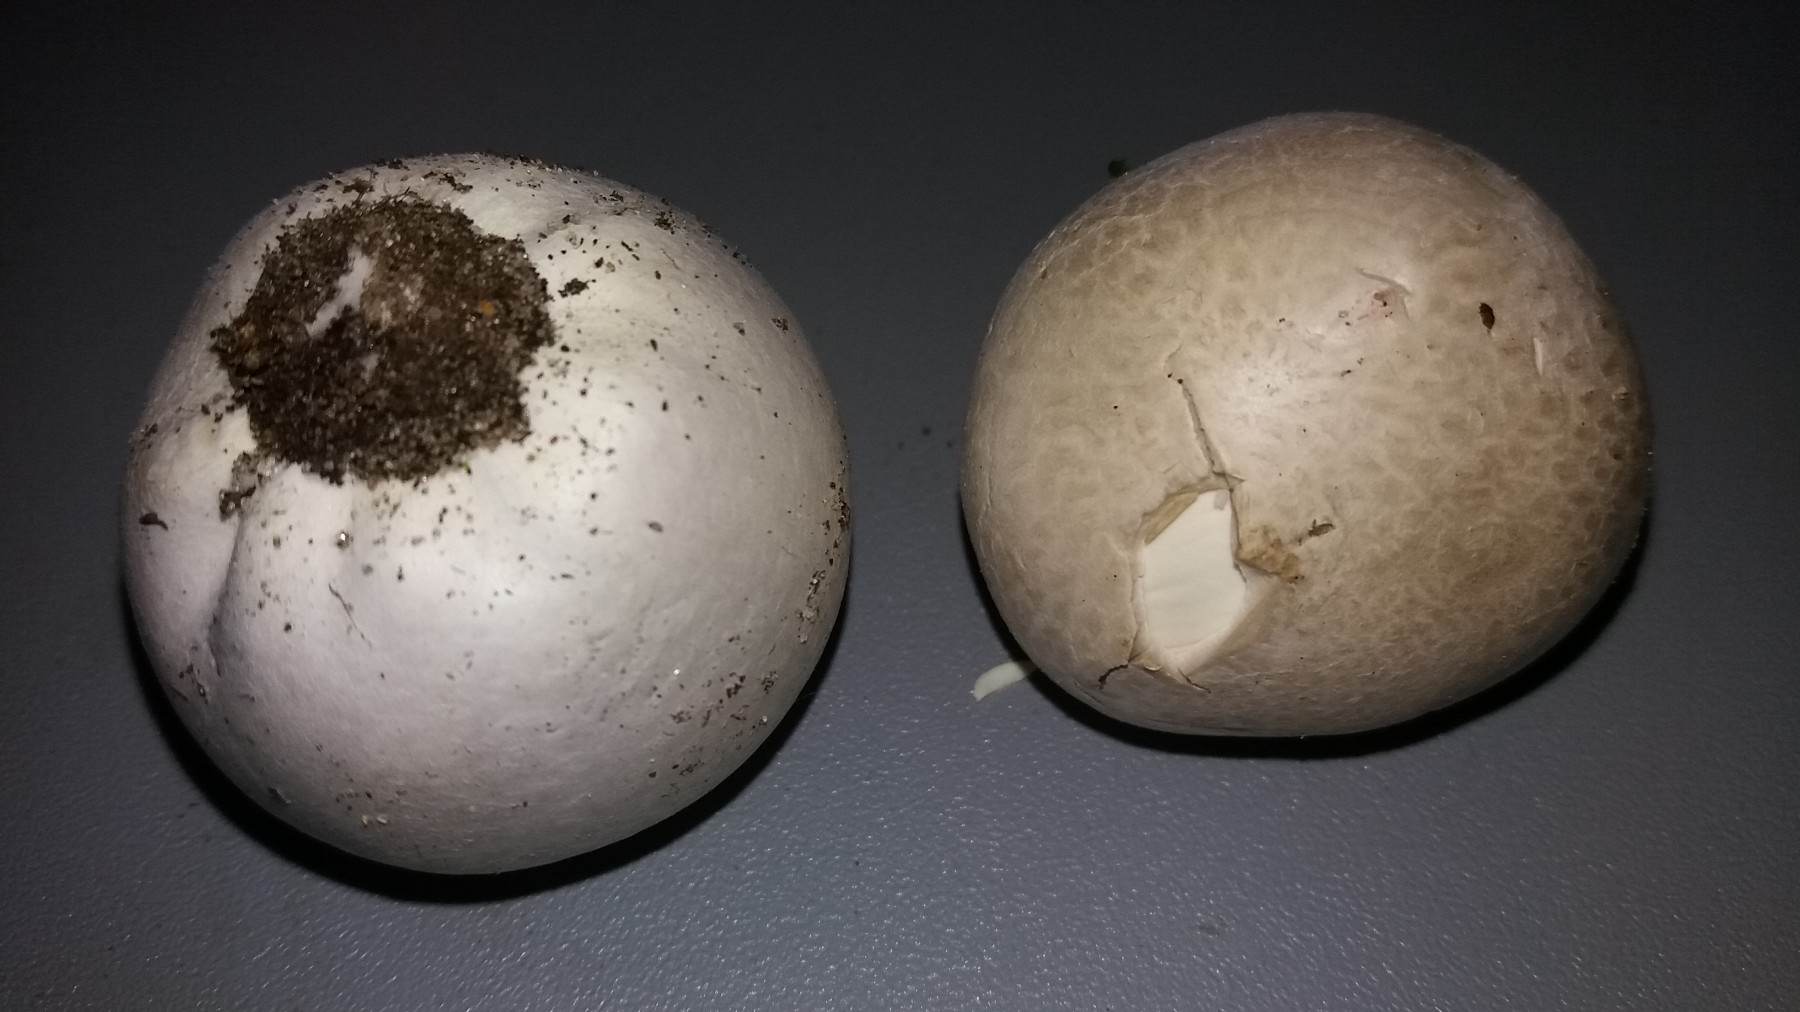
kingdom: Fungi
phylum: Basidiomycota
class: Agaricomycetes
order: Agaricales
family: Lycoperdaceae
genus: Bovista
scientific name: Bovista
